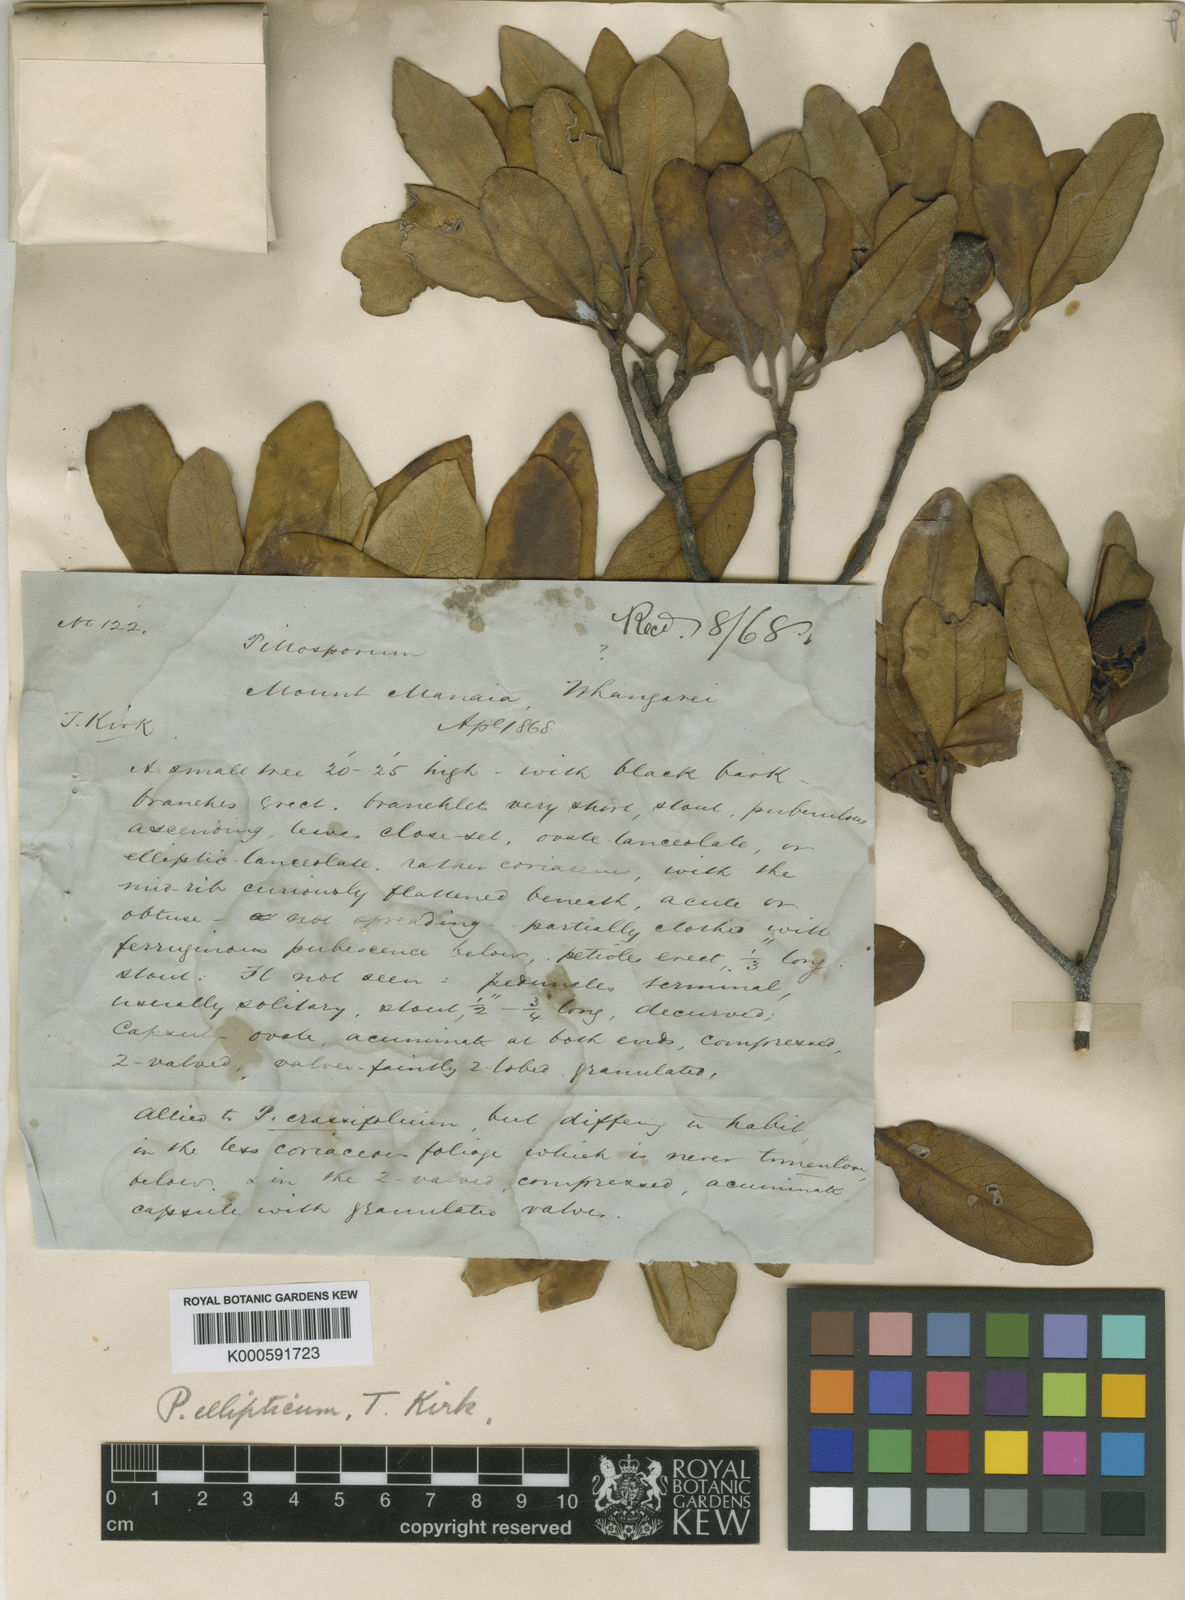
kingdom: Plantae
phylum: Tracheophyta
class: Magnoliopsida
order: Apiales
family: Pittosporaceae
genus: Pittosporum
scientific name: Pittosporum ellipticum
